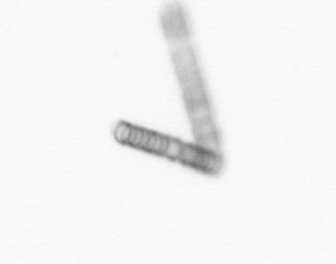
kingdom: Chromista
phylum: Ochrophyta
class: Bacillariophyceae
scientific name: Bacillariophyceae
